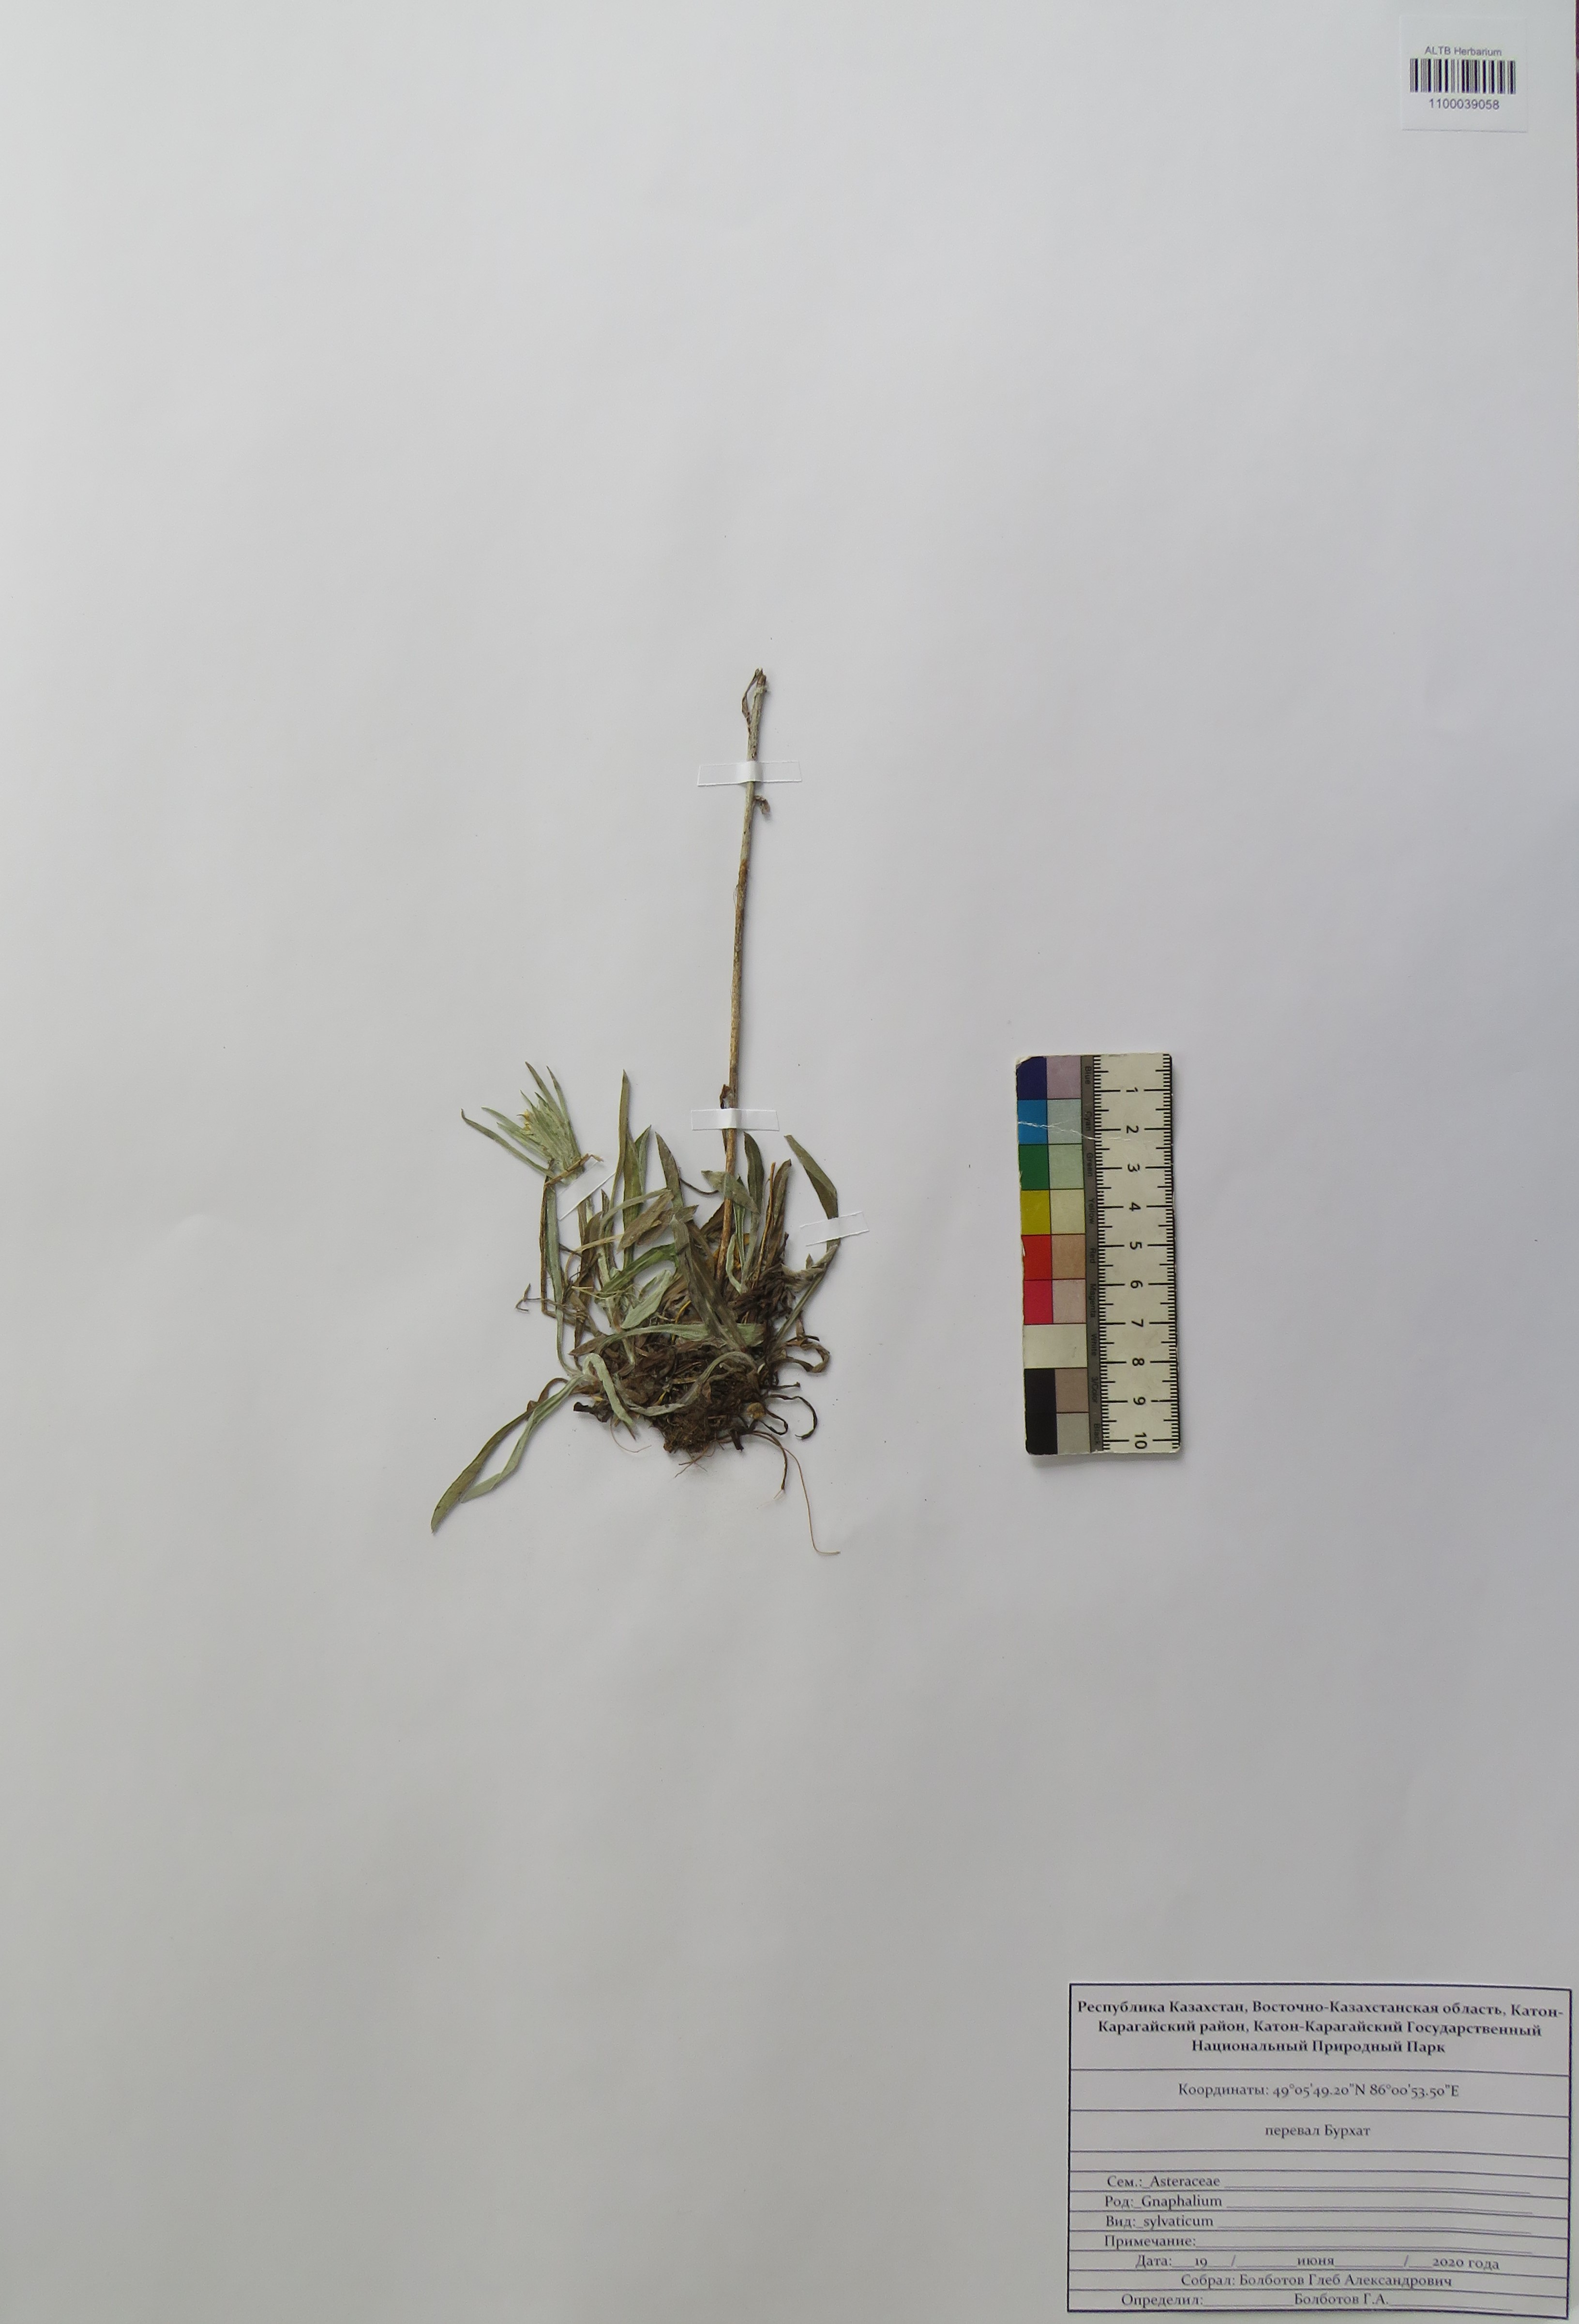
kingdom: Plantae
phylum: Tracheophyta
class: Magnoliopsida
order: Asterales
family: Asteraceae
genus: Omalotheca
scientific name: Omalotheca sylvatica
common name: Heath cudweed
